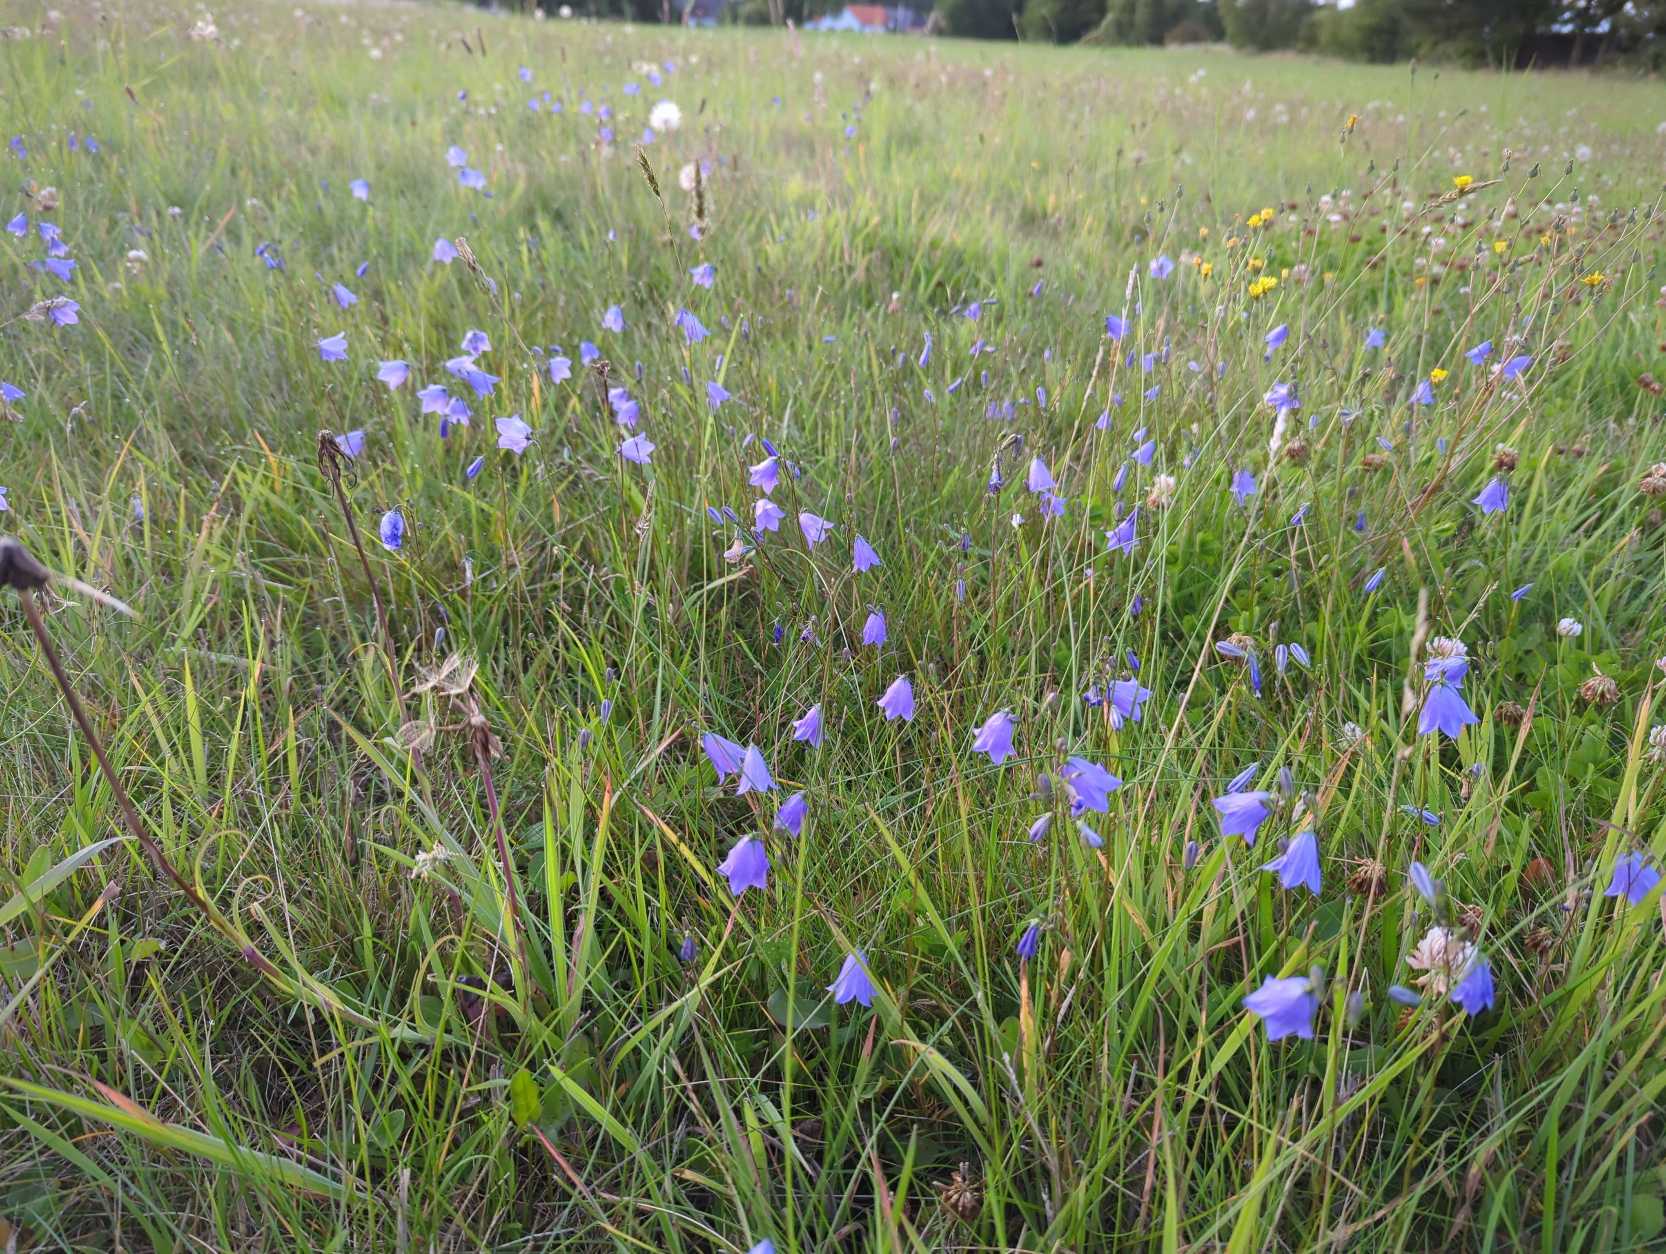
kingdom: Plantae
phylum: Tracheophyta
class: Magnoliopsida
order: Asterales
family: Campanulaceae
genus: Campanula
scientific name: Campanula rotundifolia
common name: Liden klokke
